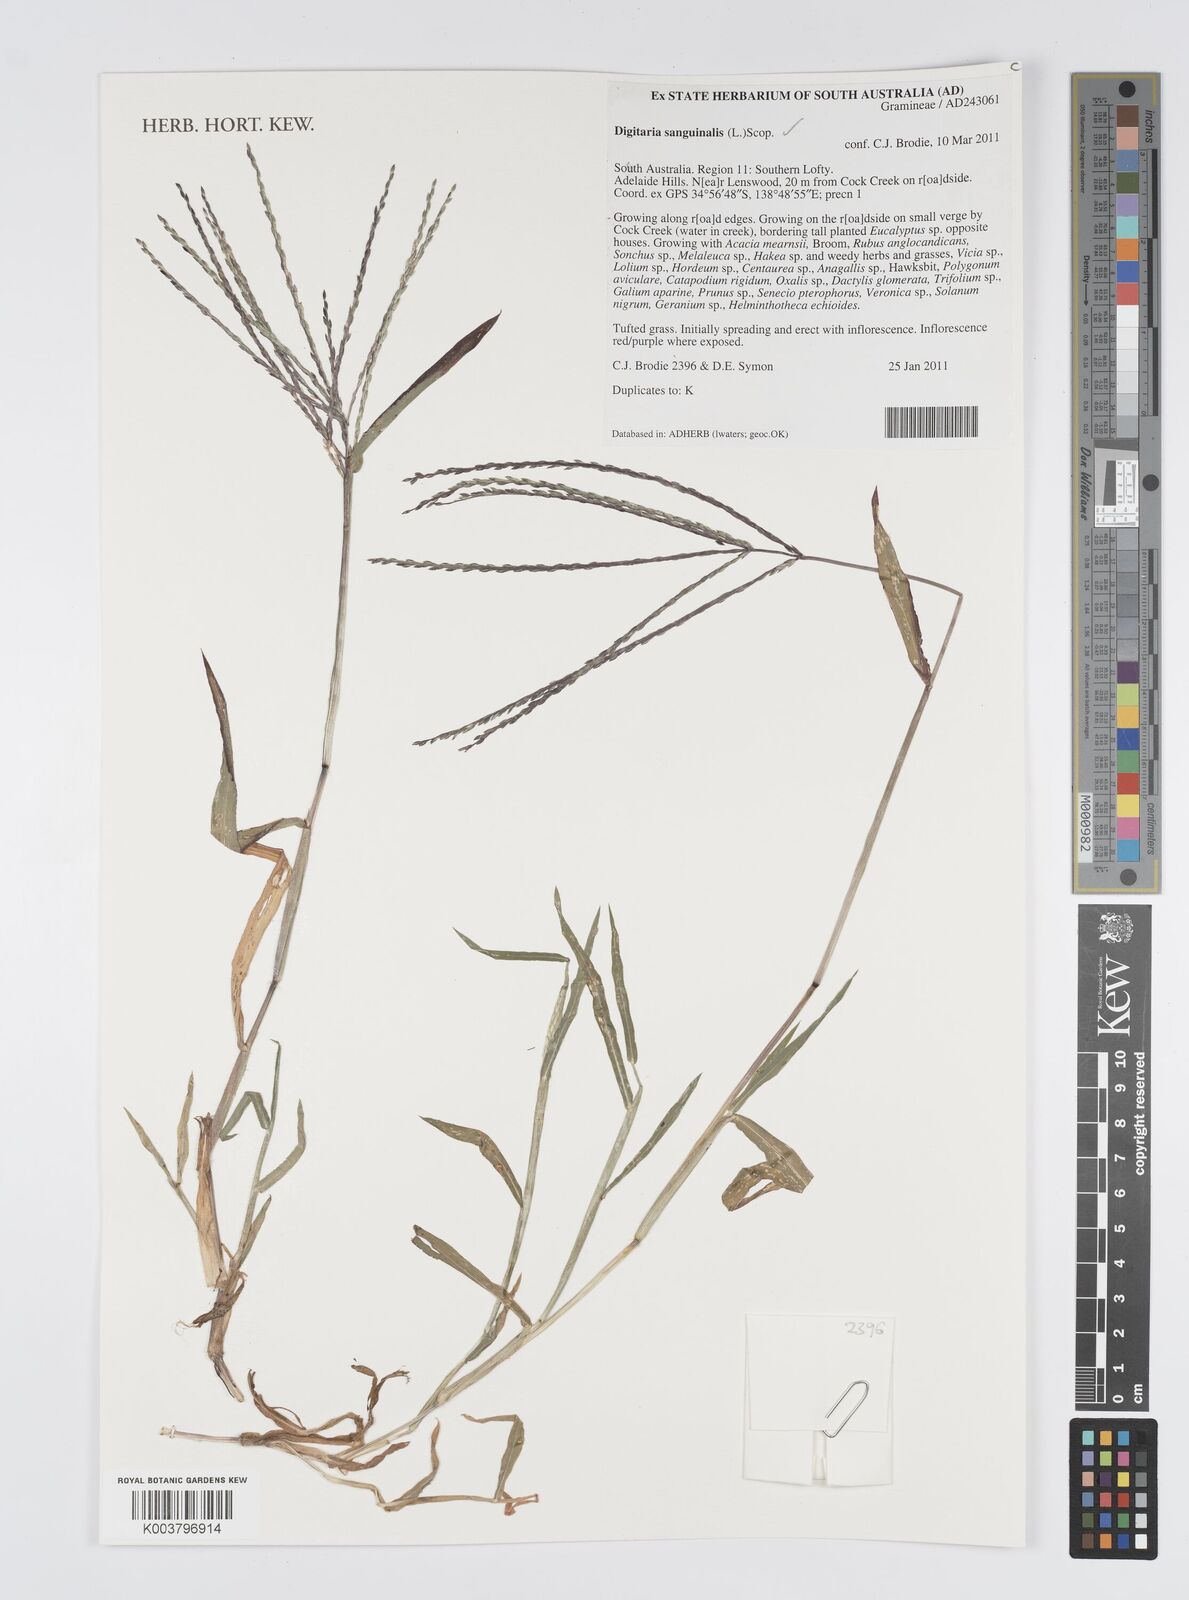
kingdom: Plantae
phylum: Tracheophyta
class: Liliopsida
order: Poales
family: Poaceae
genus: Digitaria
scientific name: Digitaria sanguinalis
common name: Hairy crabgrass
